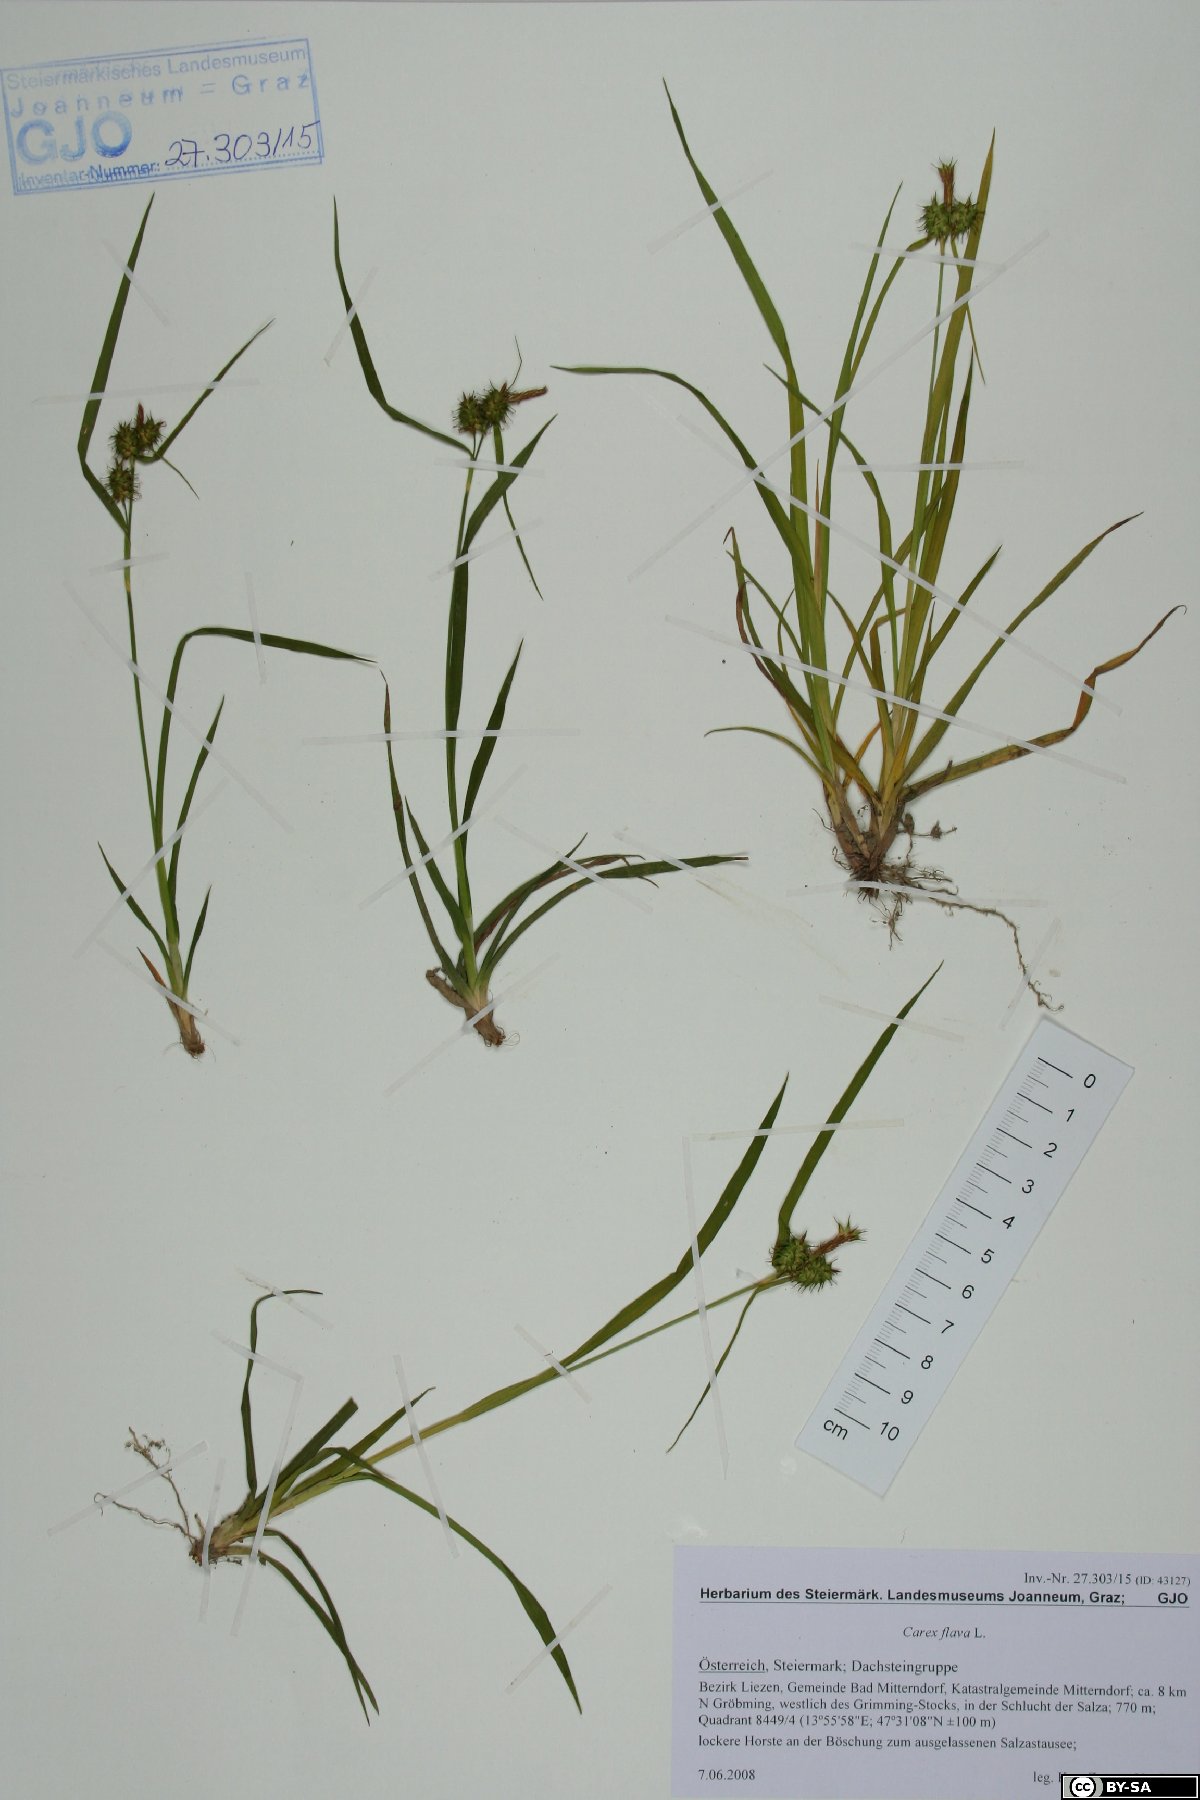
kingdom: Plantae
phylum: Tracheophyta
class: Liliopsida
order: Poales
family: Cyperaceae
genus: Carex
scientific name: Carex flava
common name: Large yellow-sedge
